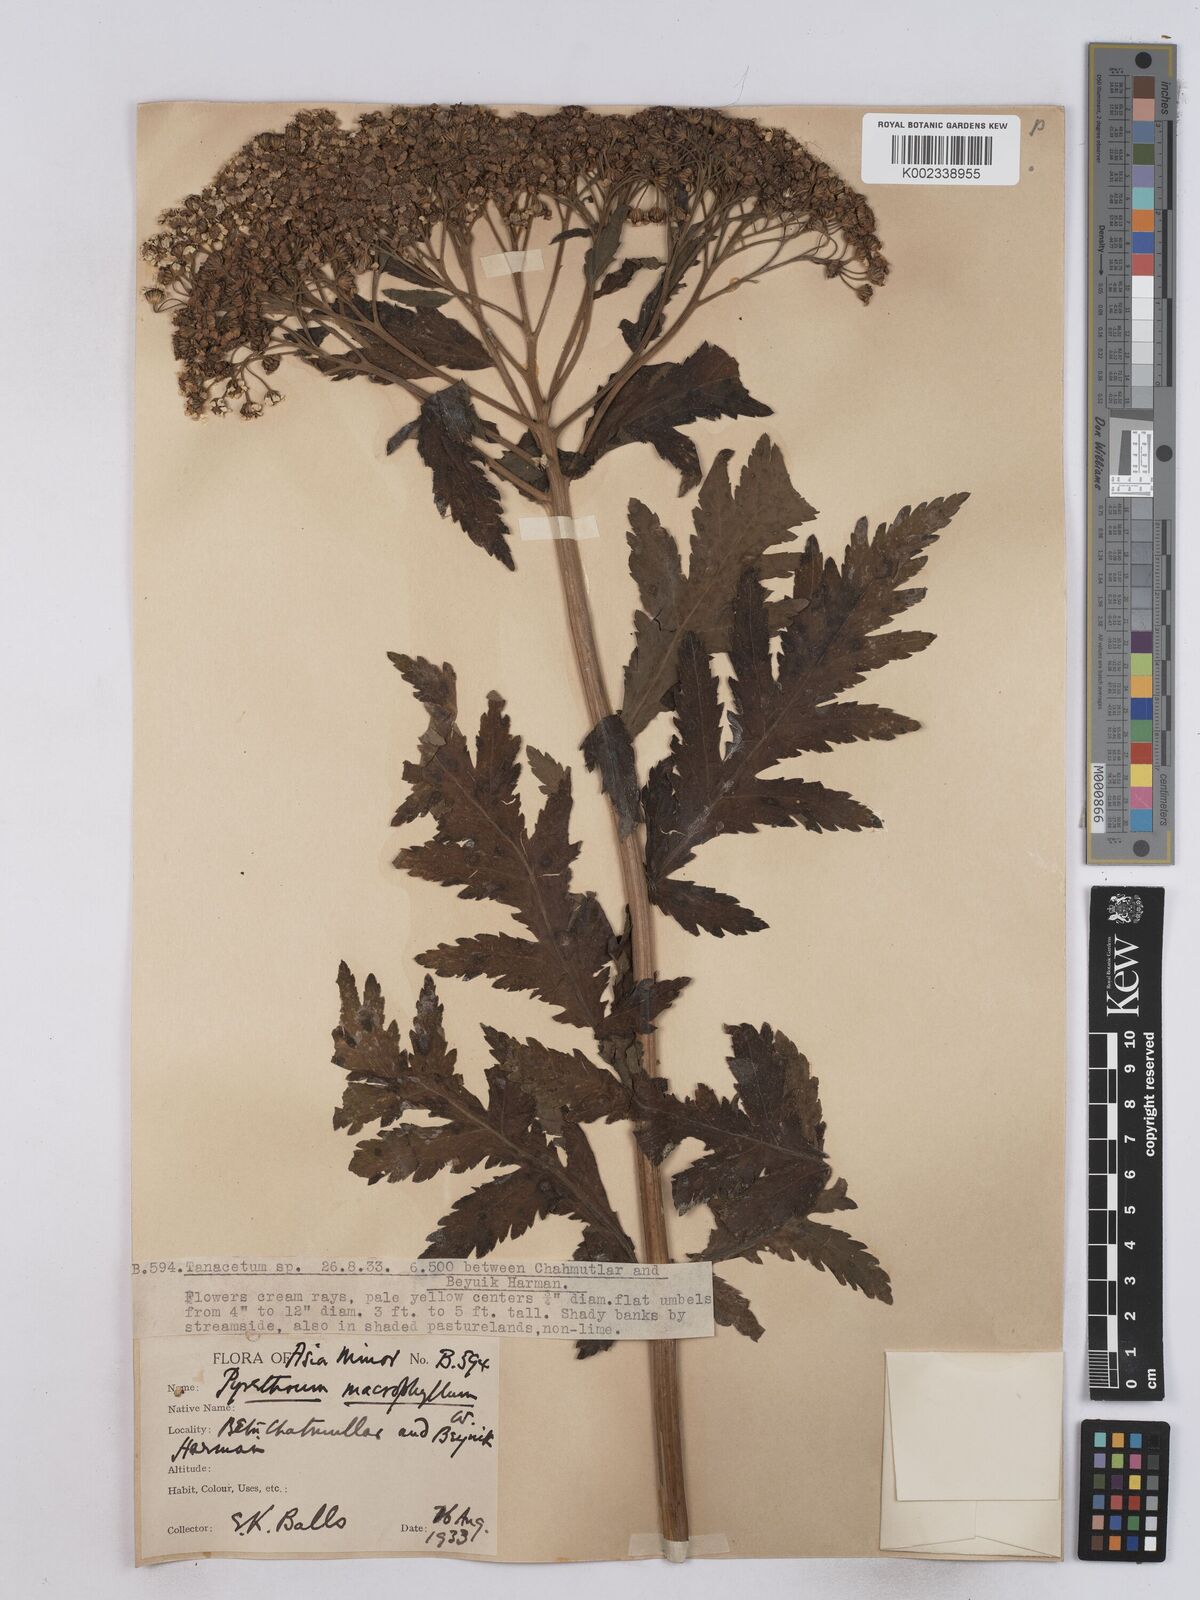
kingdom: Plantae
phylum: Tracheophyta
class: Magnoliopsida
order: Asterales
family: Asteraceae
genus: Tanacetum
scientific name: Tanacetum macrophyllum
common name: Rayed tansy
